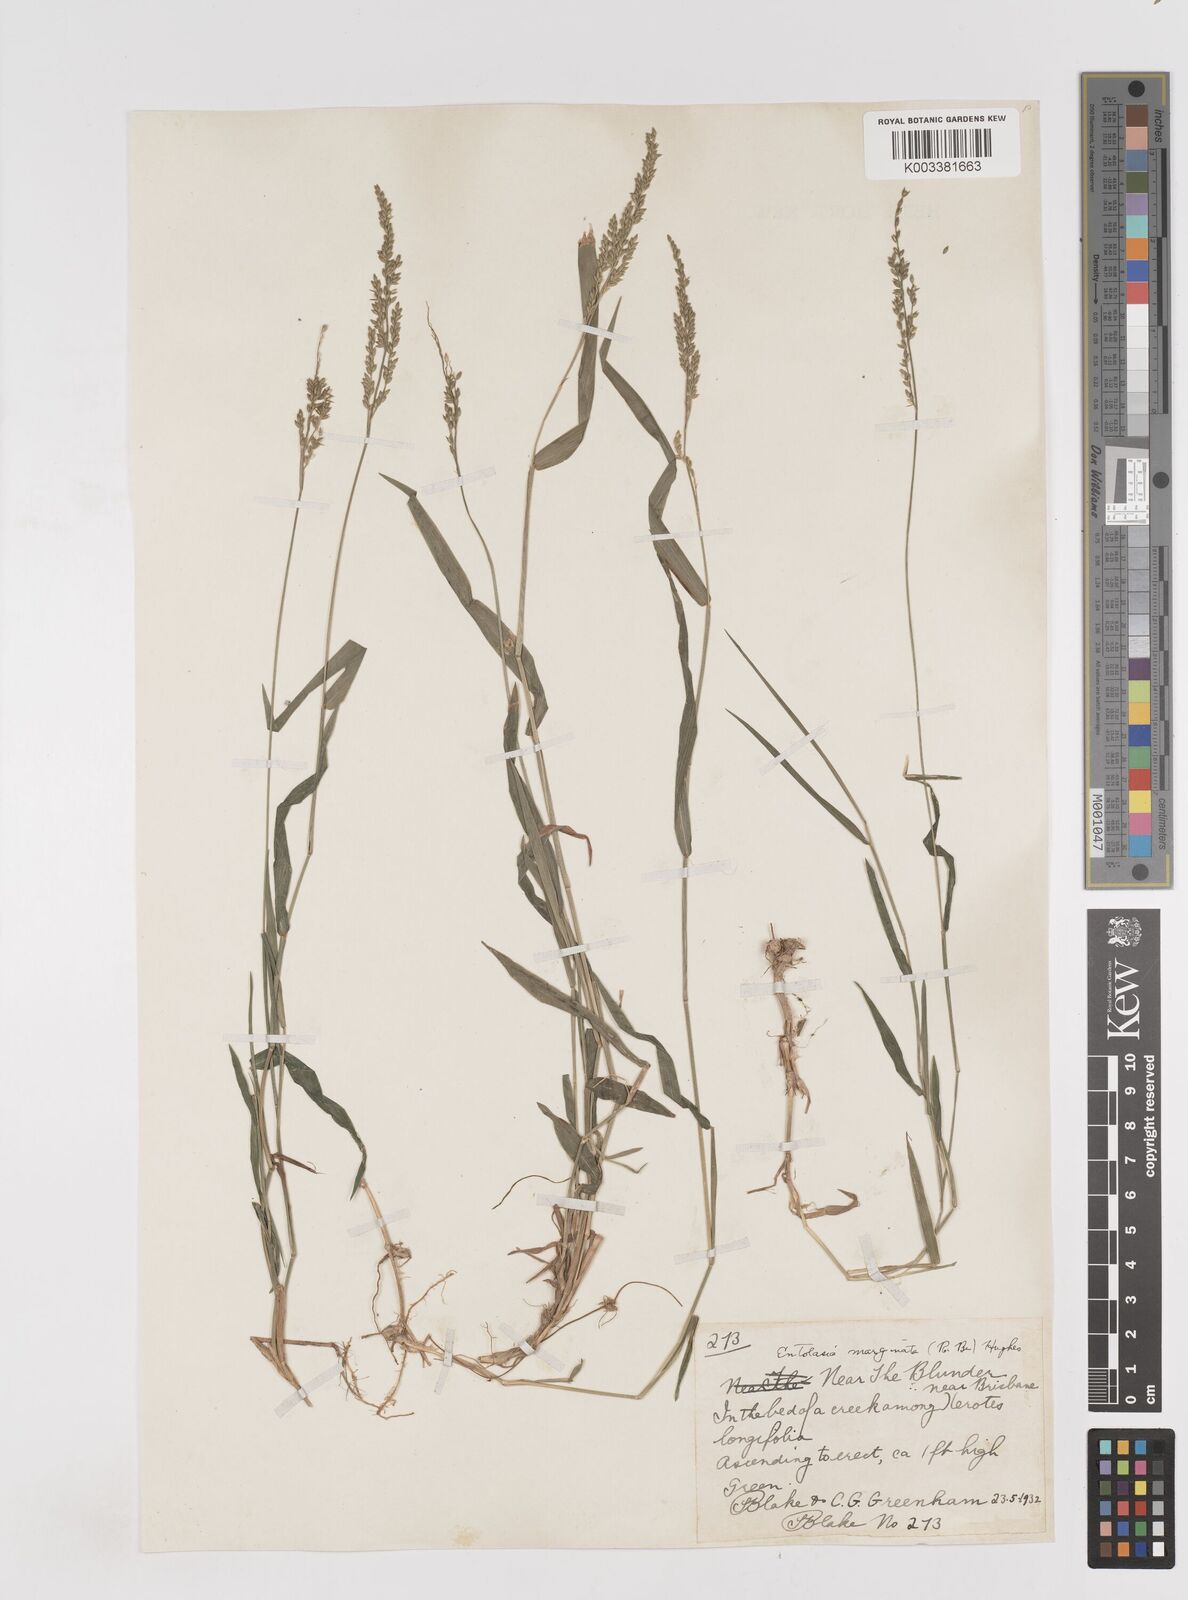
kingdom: Plantae
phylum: Tracheophyta
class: Liliopsida
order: Poales
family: Poaceae
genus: Entolasia
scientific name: Entolasia marginata
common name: Australian panicgrass
